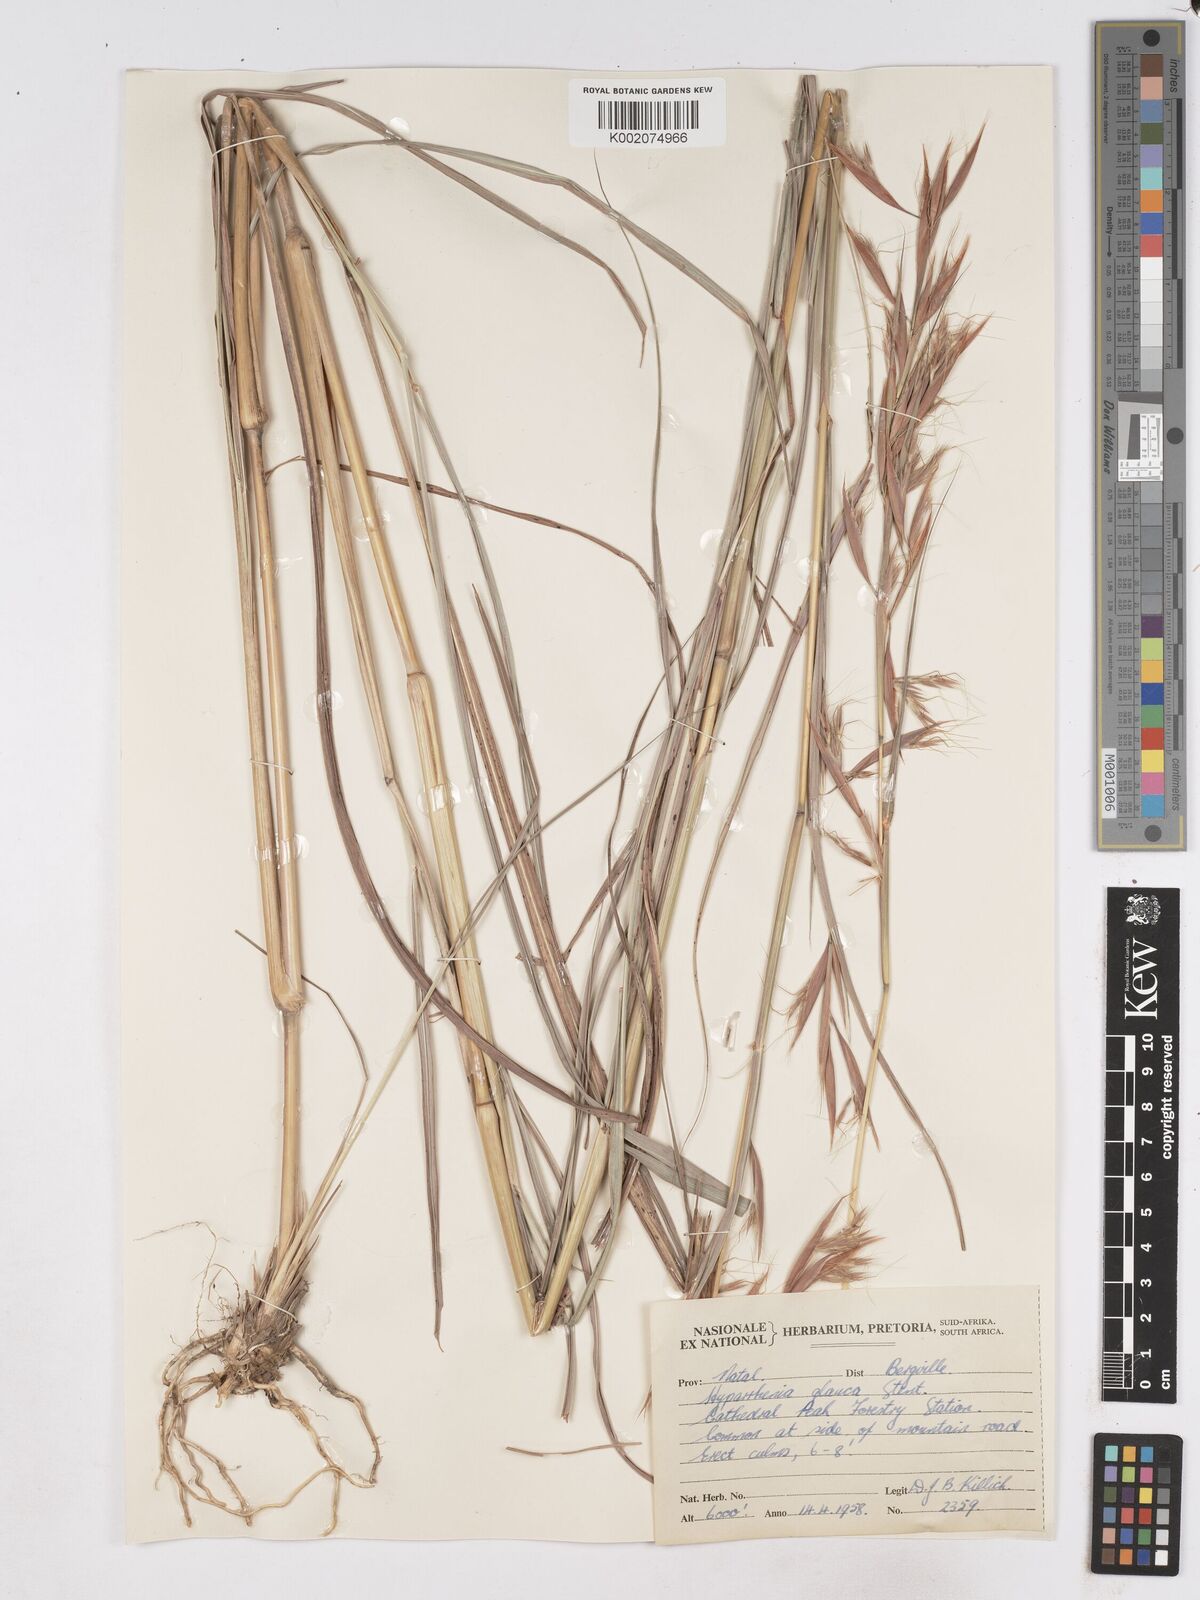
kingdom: Plantae
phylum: Tracheophyta
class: Liliopsida
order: Poales
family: Poaceae
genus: Hyparrhenia
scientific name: Hyparrhenia tamba
